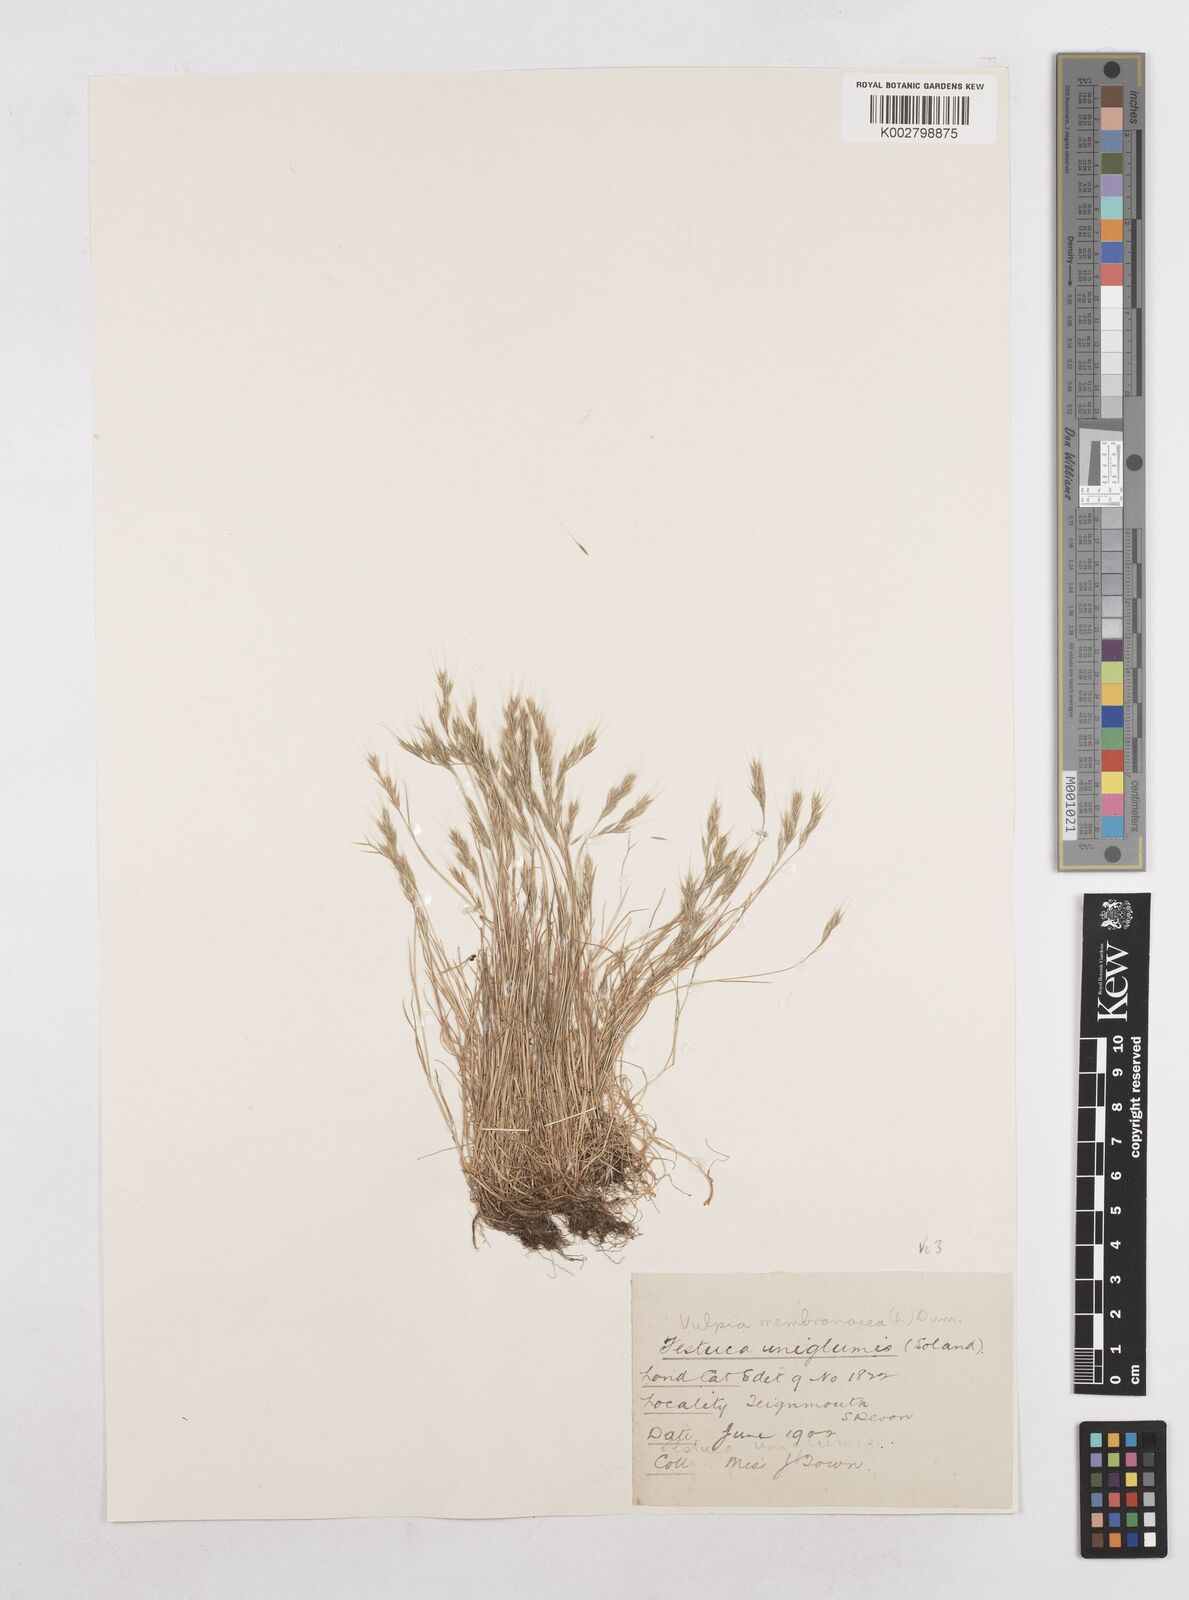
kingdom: Plantae
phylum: Tracheophyta
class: Liliopsida
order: Poales
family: Poaceae
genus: Festuca
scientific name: Festuca bromoides
